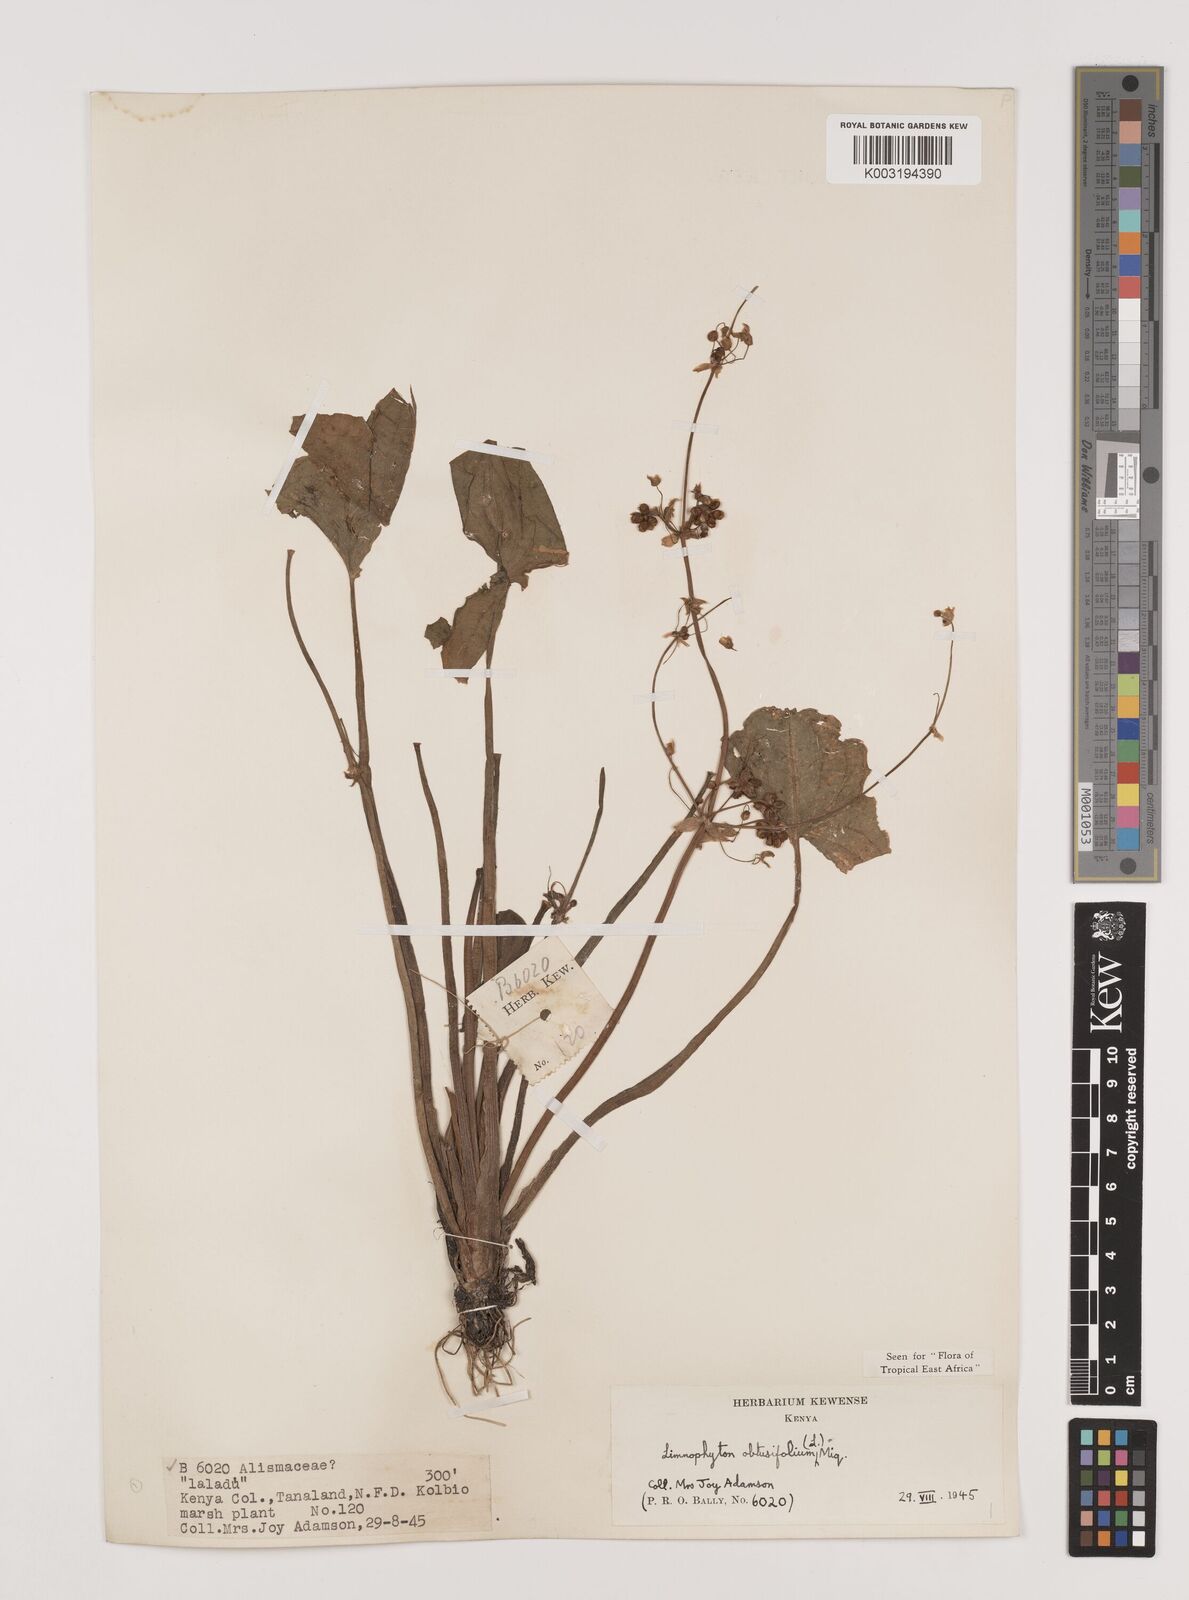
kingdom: Plantae
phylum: Tracheophyta
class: Liliopsida
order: Alismatales
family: Alismataceae
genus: Limnophyton
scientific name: Limnophyton obtusifolium
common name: Arrow head
